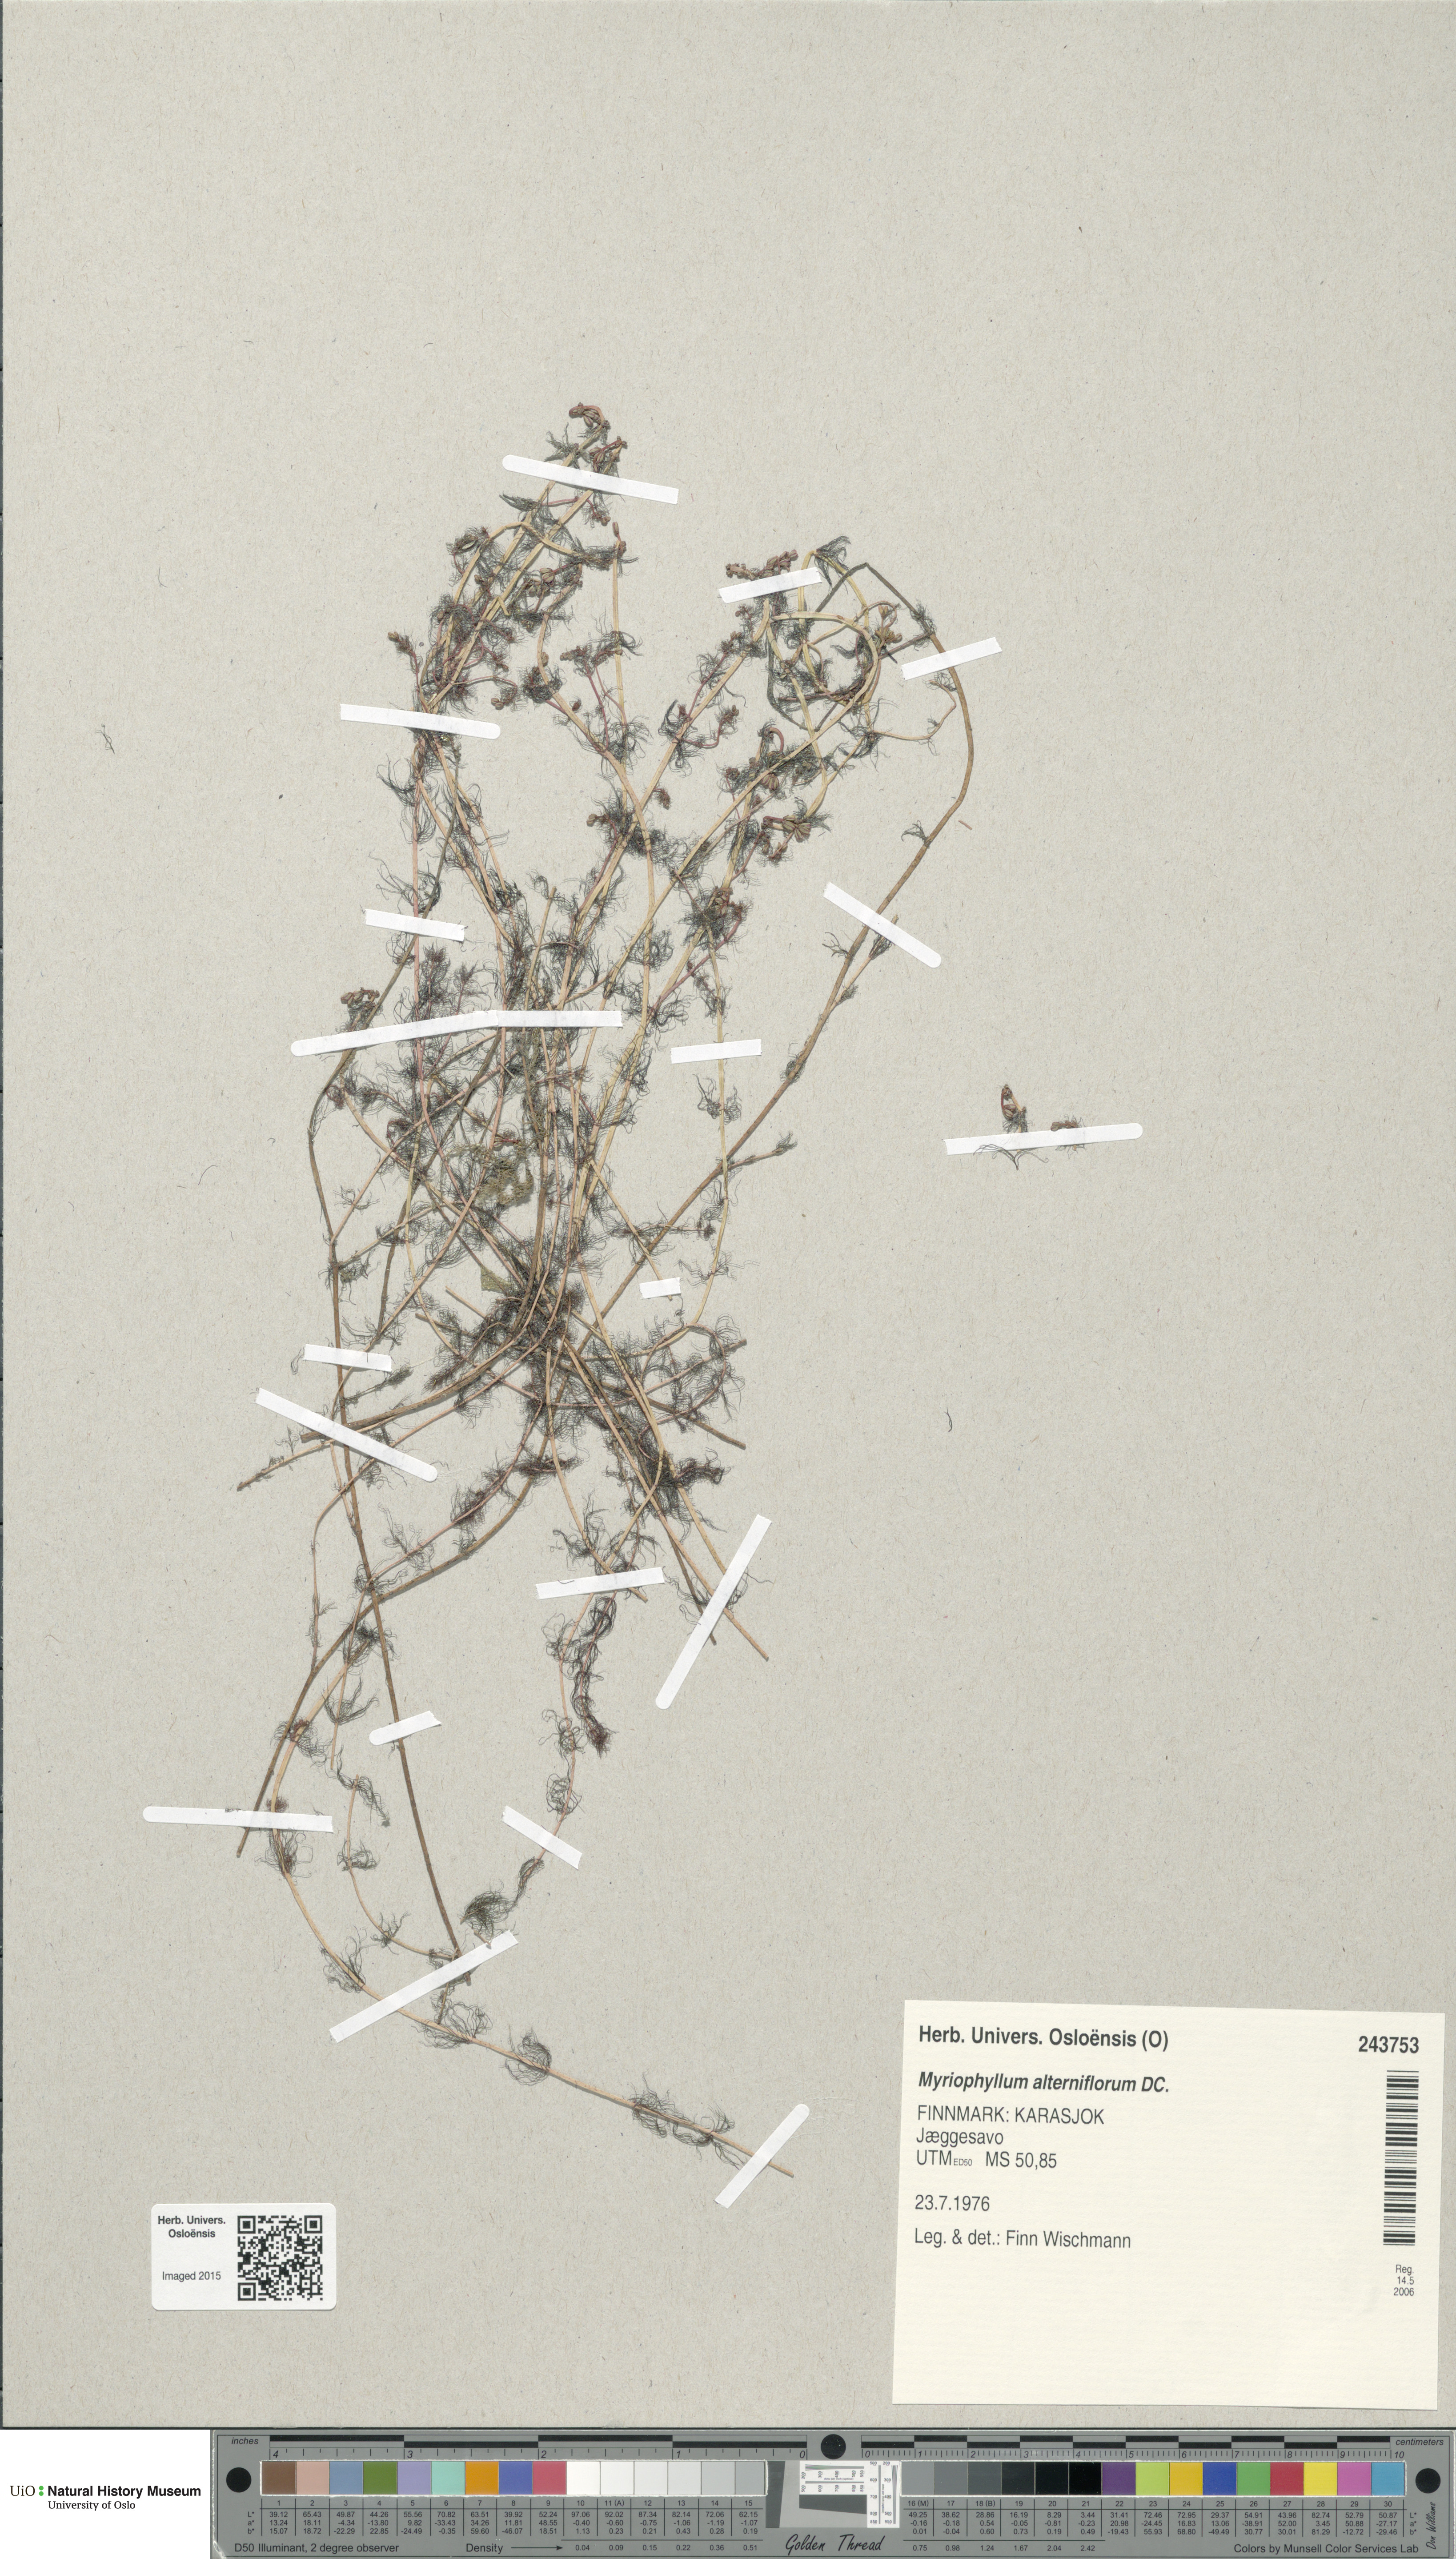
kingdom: Plantae
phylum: Tracheophyta
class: Magnoliopsida
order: Saxifragales
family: Haloragaceae
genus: Myriophyllum
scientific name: Myriophyllum alterniflorum
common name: Alternate water-milfoil
